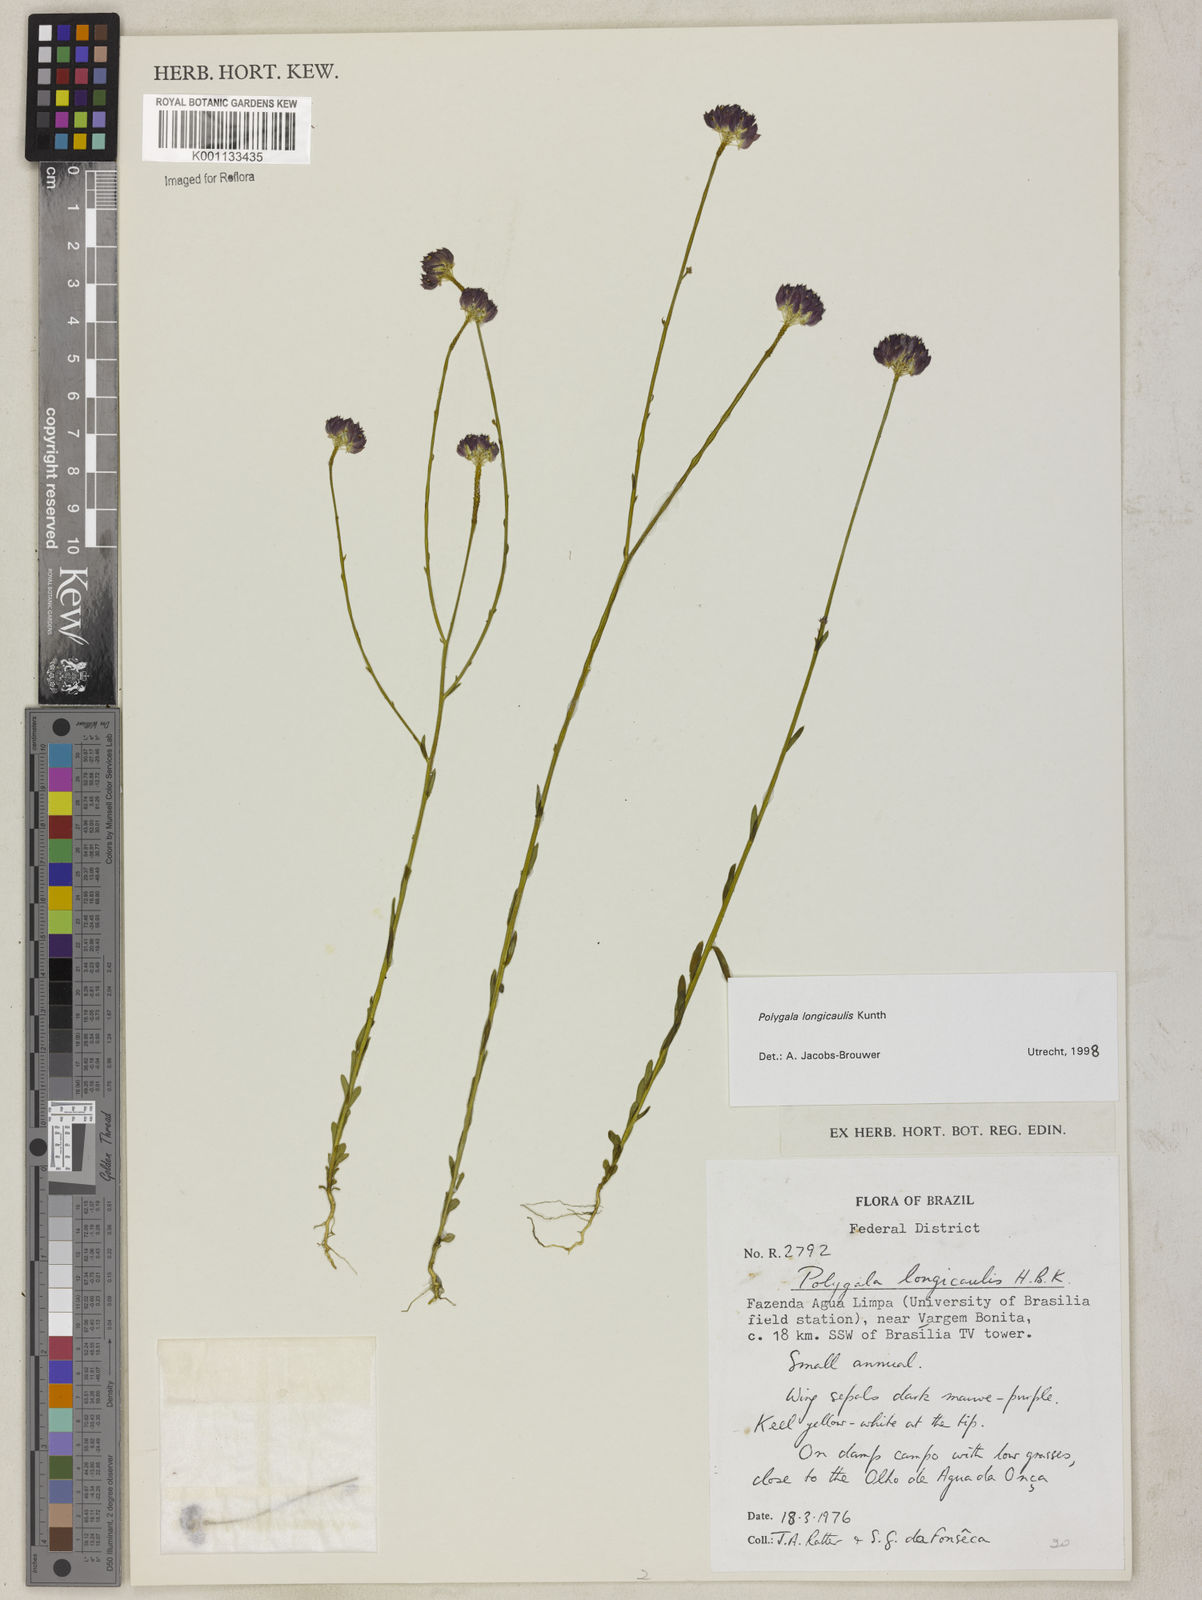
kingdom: Plantae
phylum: Tracheophyta
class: Magnoliopsida
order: Fabales
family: Polygalaceae
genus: Polygala
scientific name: Polygala longicaulis
